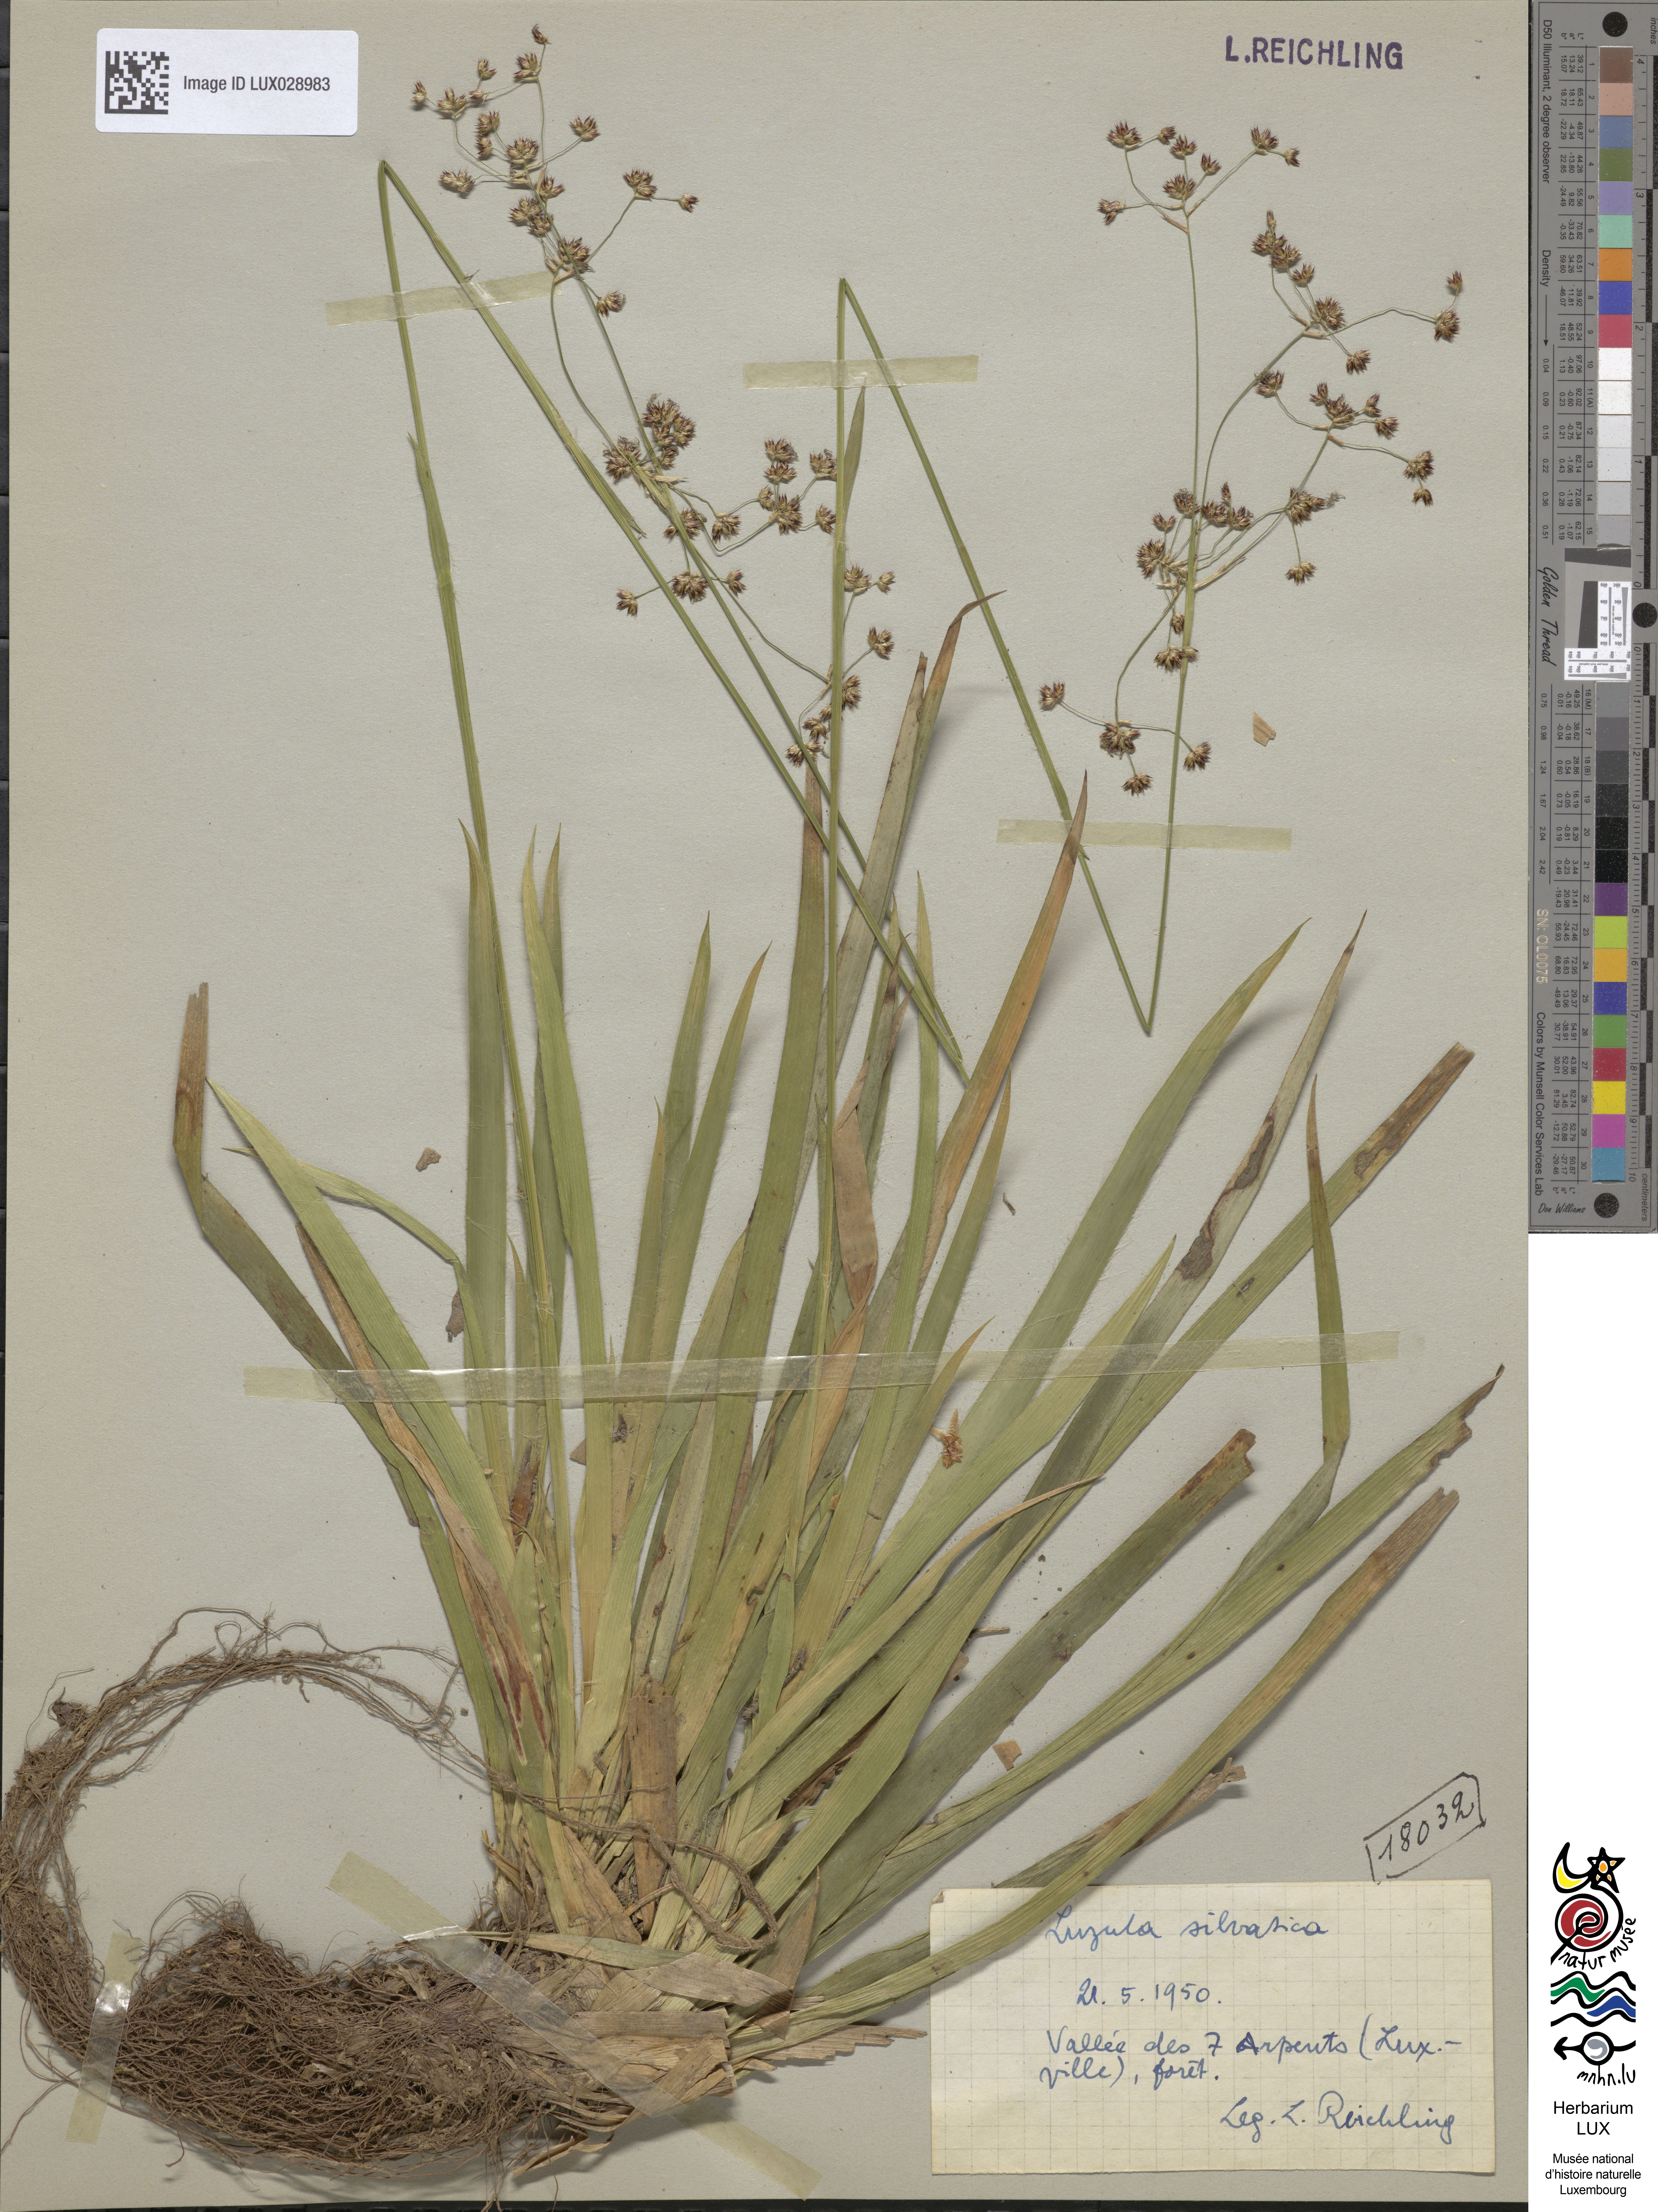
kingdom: Plantae
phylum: Tracheophyta
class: Liliopsida
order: Poales
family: Juncaceae
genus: Luzula
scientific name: Luzula sylvatica
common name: Great wood-rush
